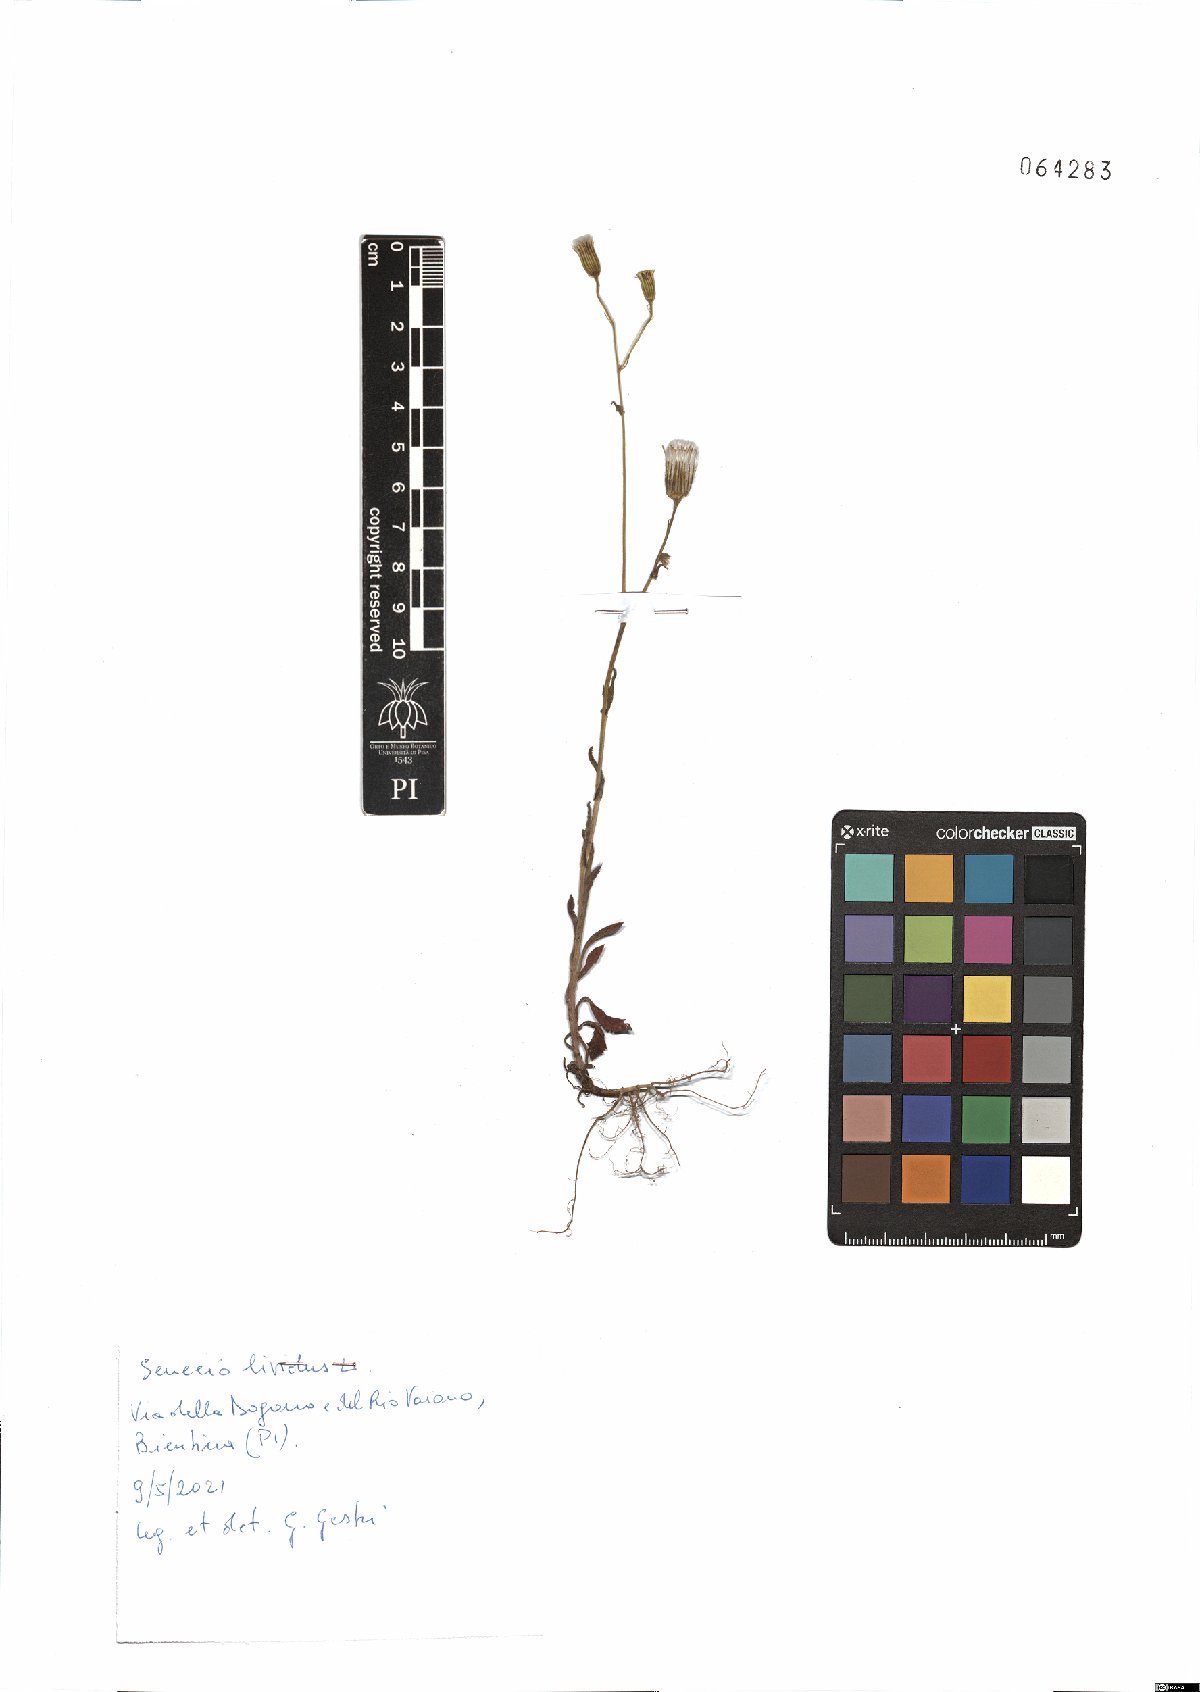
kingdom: Plantae
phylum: Tracheophyta
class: Magnoliopsida
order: Asterales
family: Asteraceae
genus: Senecio
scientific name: Senecio lividus
